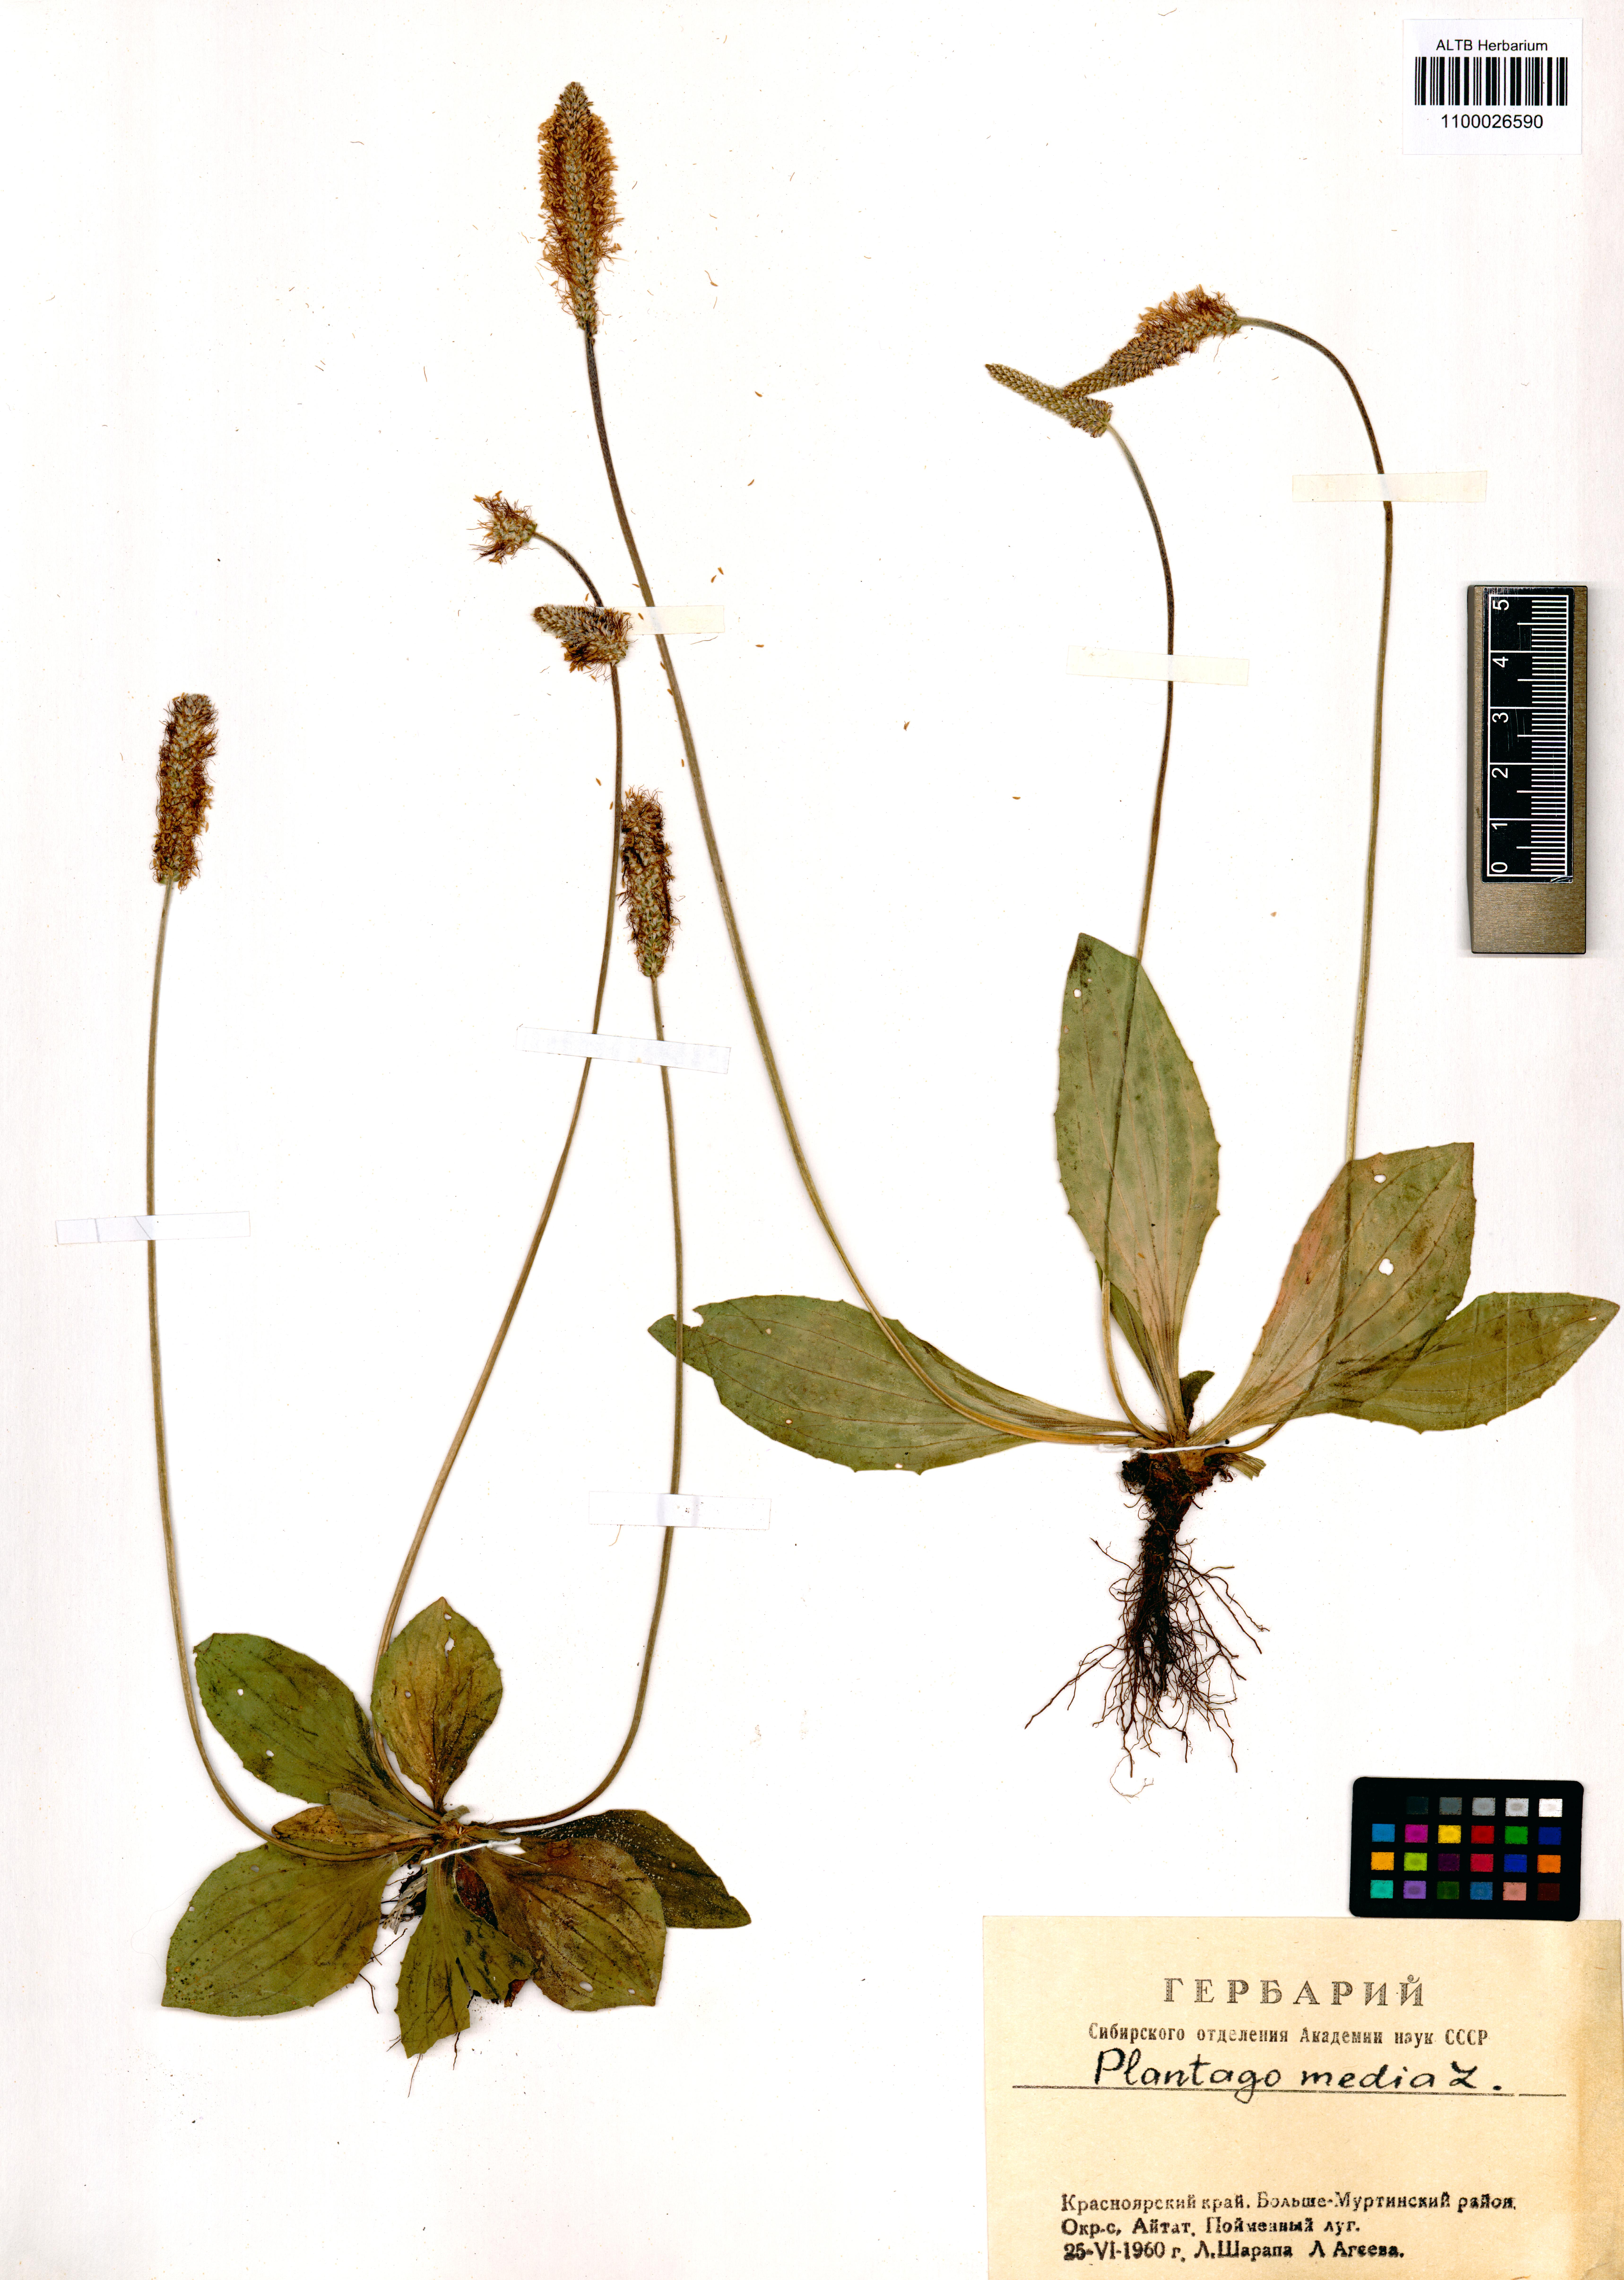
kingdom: Plantae
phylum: Tracheophyta
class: Magnoliopsida
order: Lamiales
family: Plantaginaceae
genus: Plantago
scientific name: Plantago media
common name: Hoary plantain
